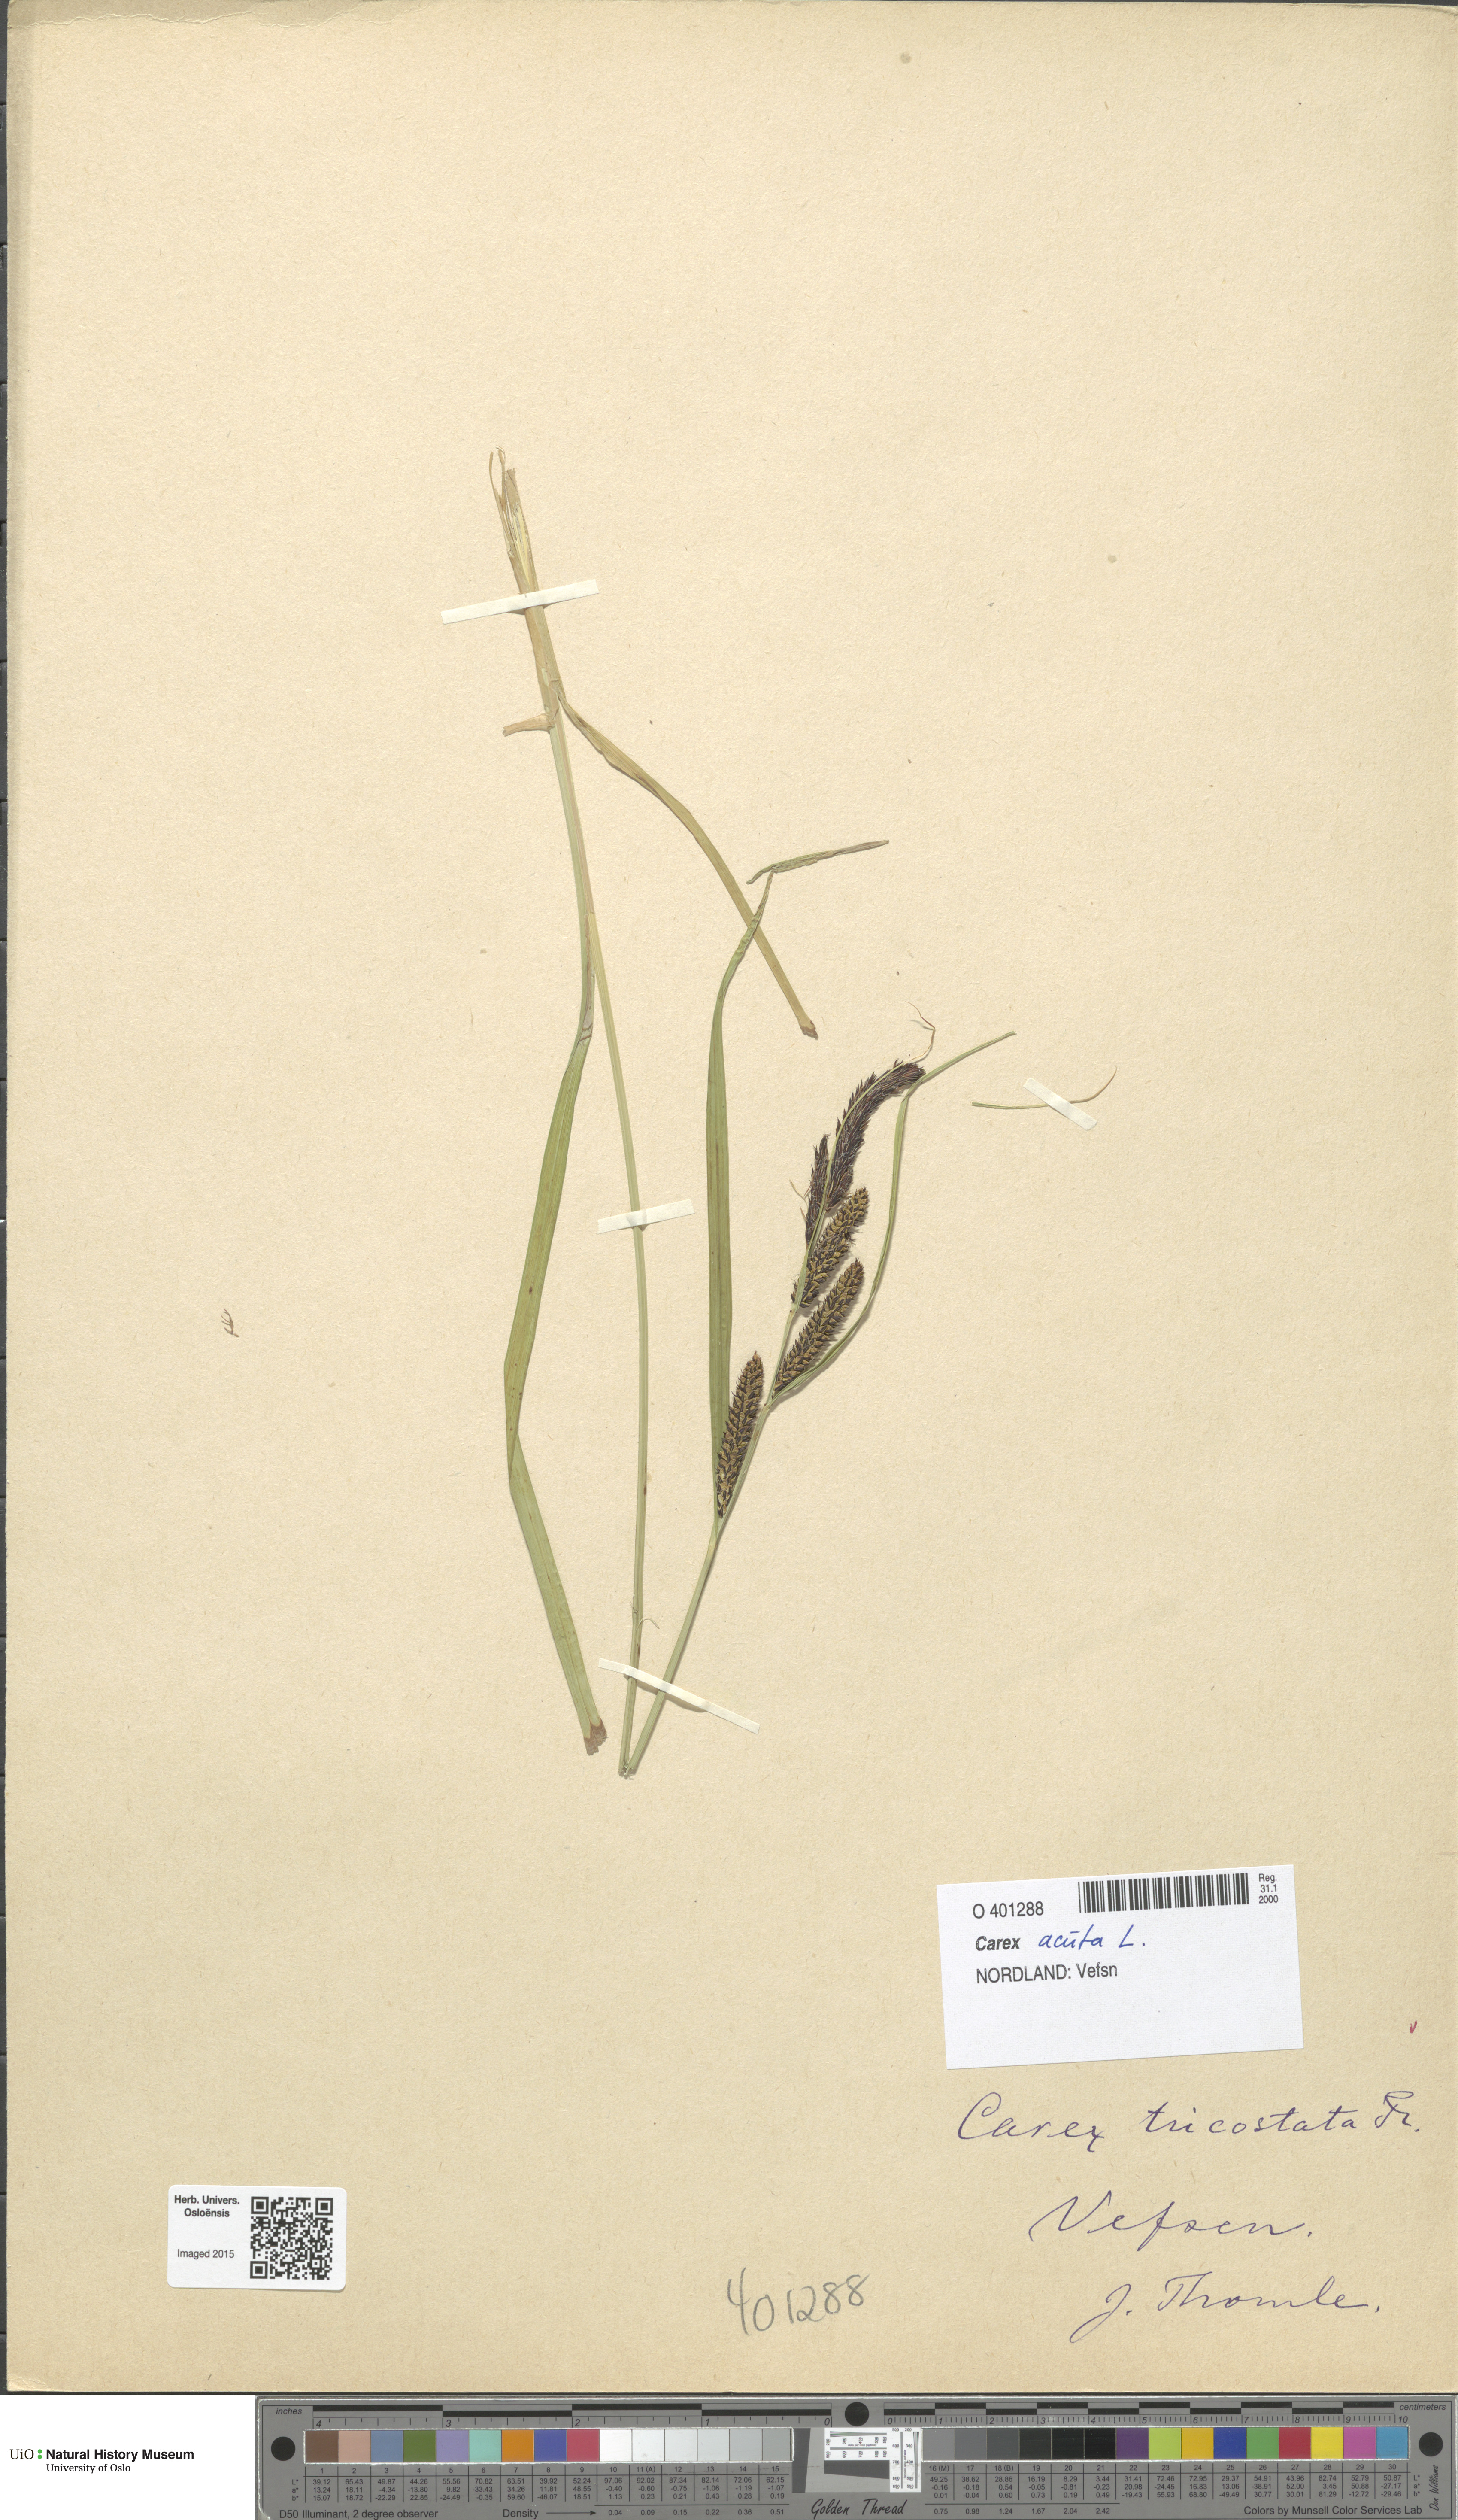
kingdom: Plantae
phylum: Tracheophyta
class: Liliopsida
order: Poales
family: Cyperaceae
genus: Carex
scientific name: Carex acuta
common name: Slender tufted-sedge
